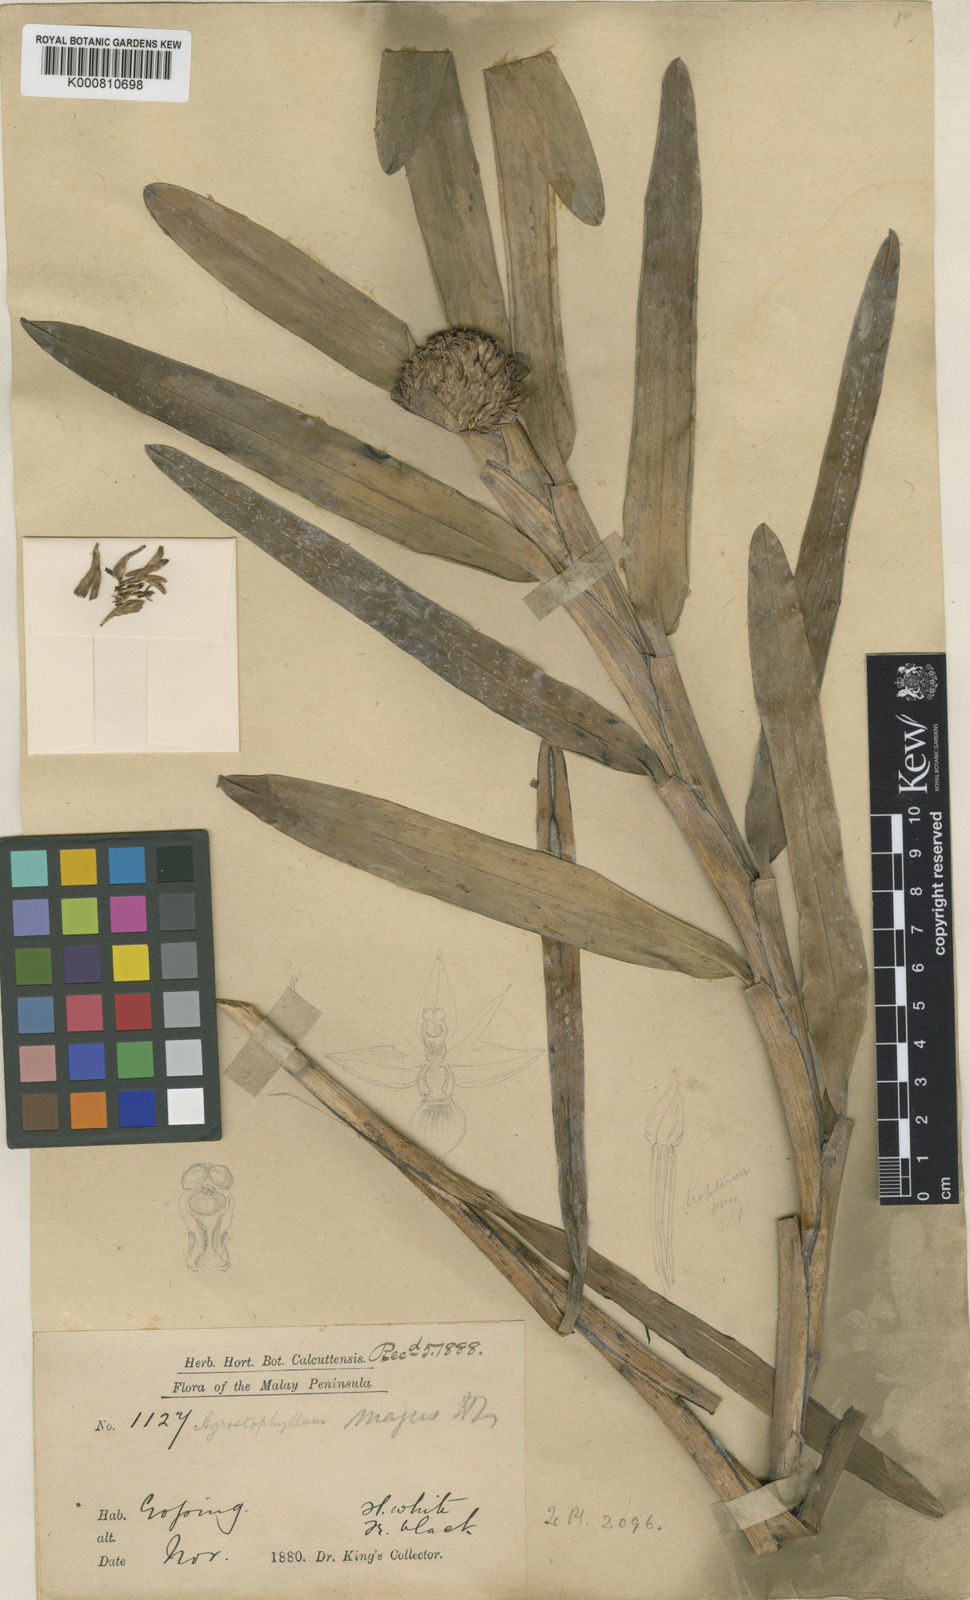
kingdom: Plantae
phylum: Tracheophyta
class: Liliopsida
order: Asparagales
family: Orchidaceae
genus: Agrostophyllum
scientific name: Agrostophyllum majus
